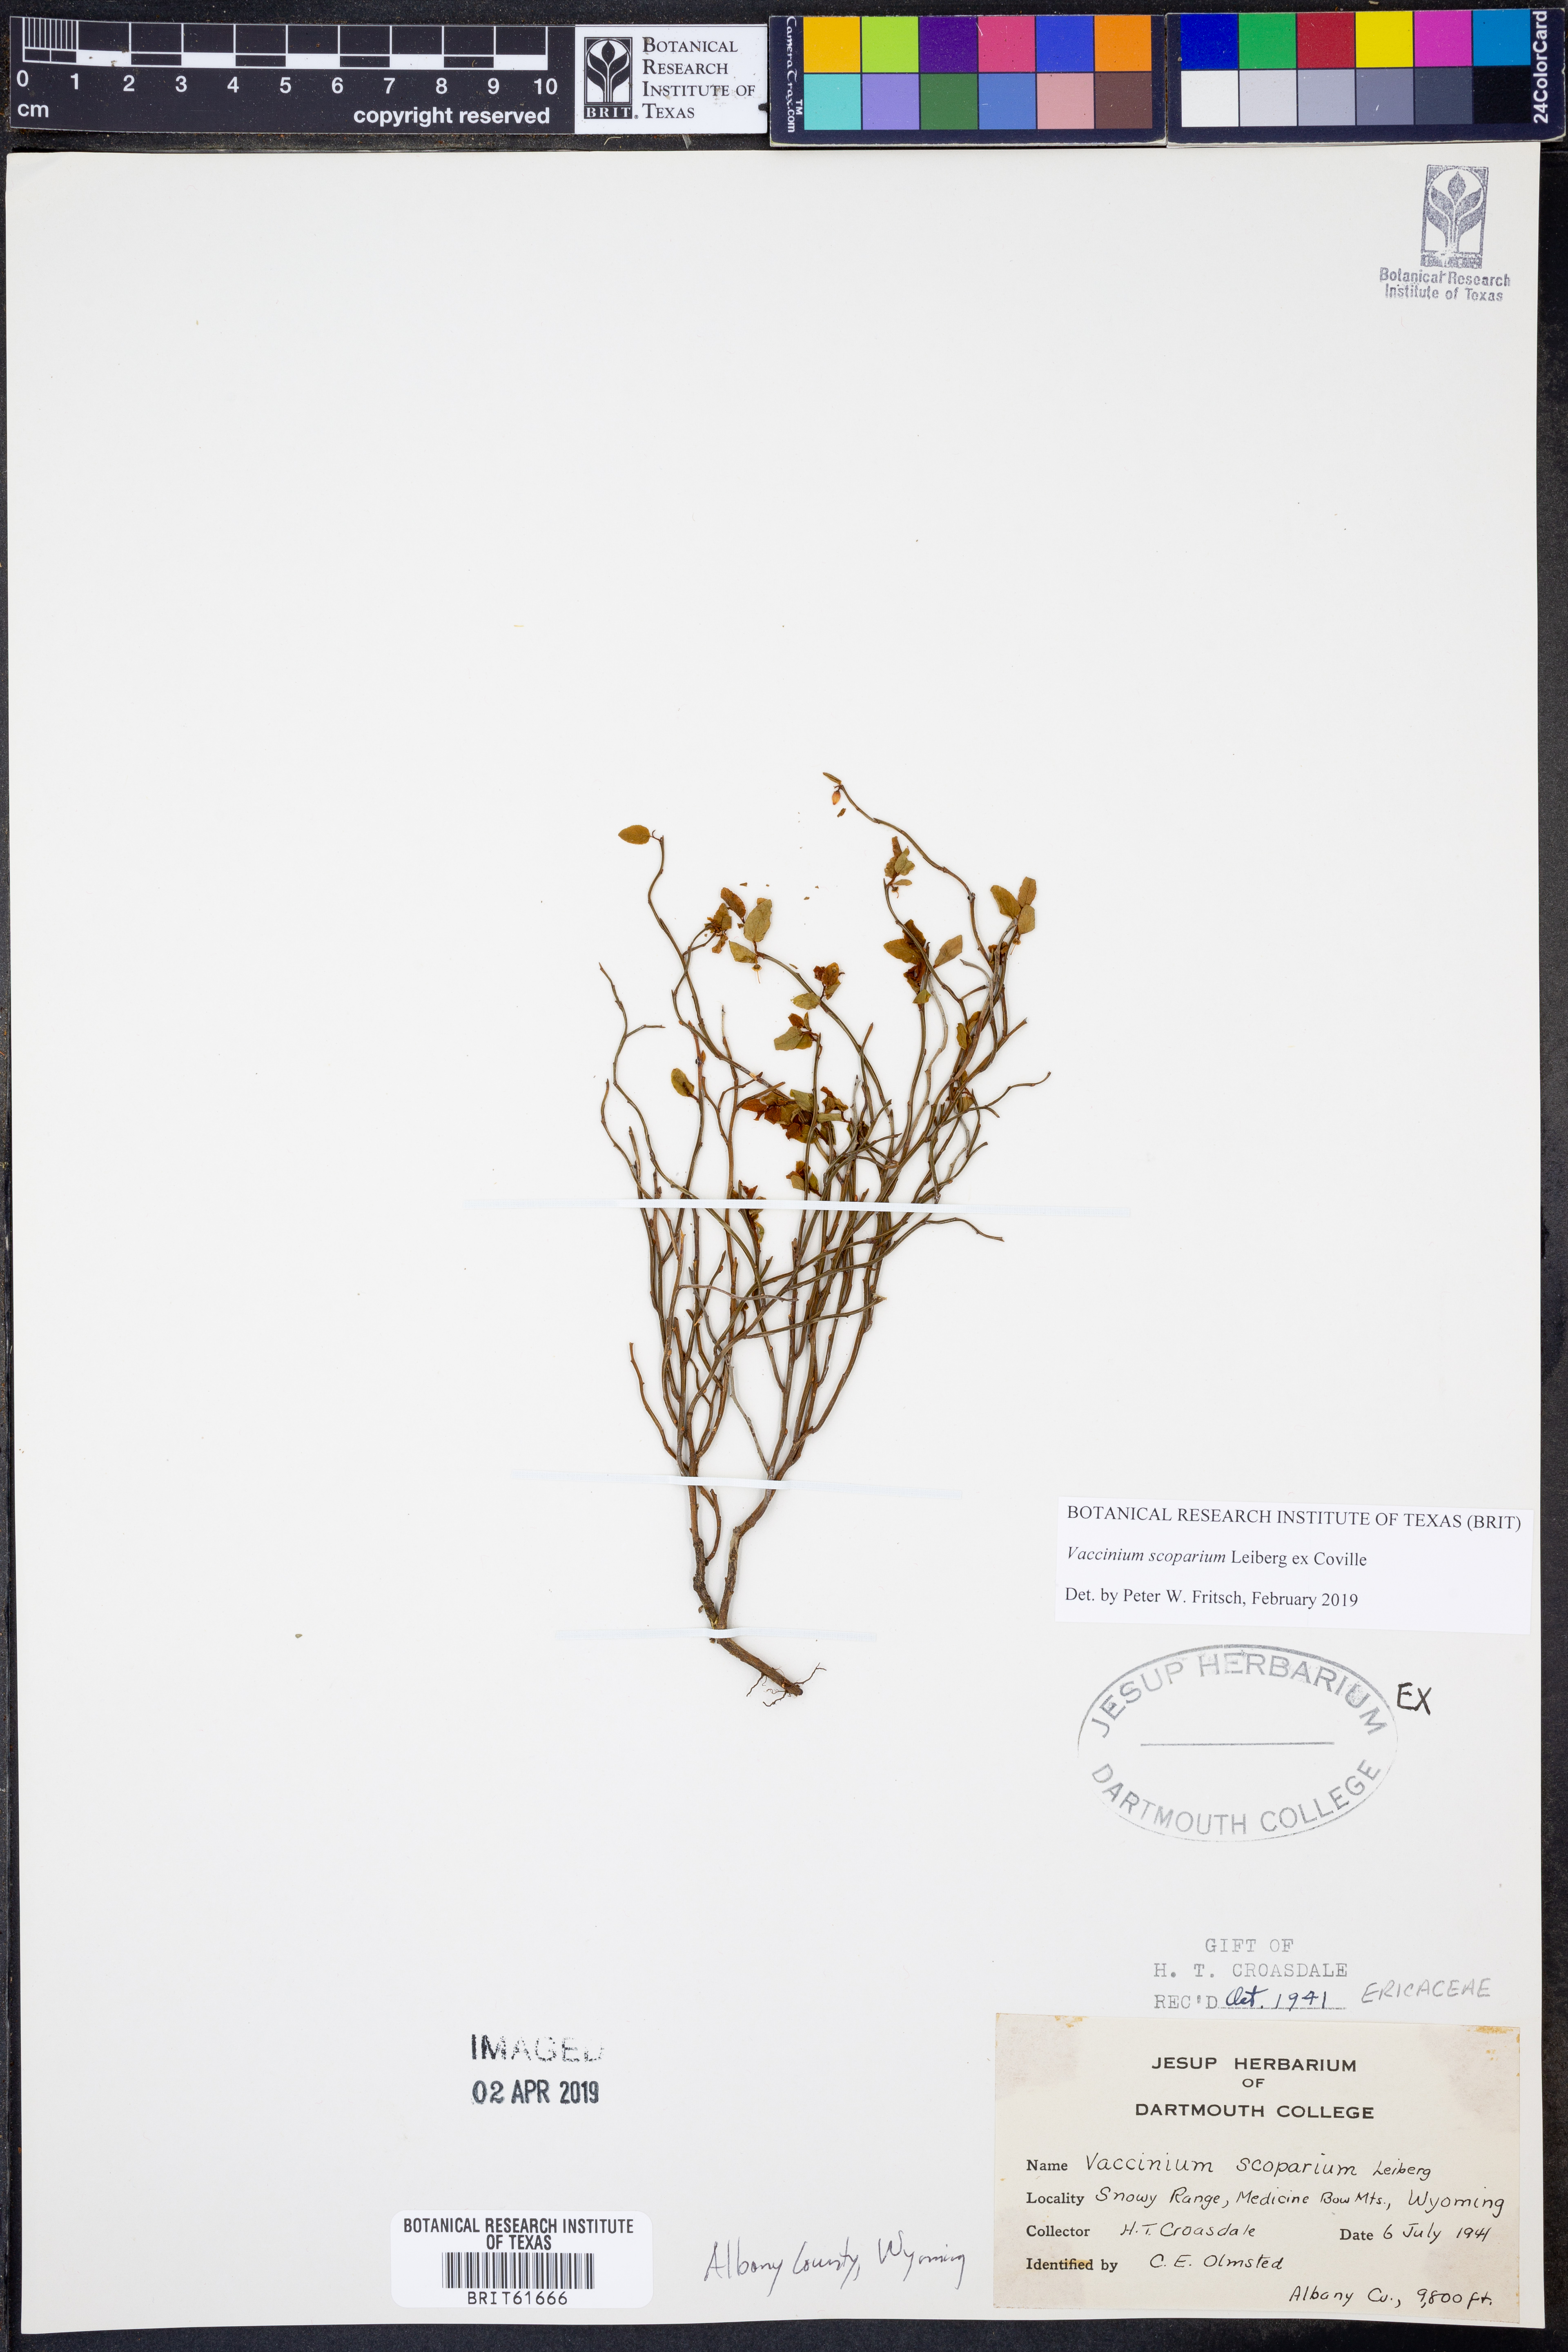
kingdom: Plantae
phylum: Tracheophyta
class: Magnoliopsida
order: Ericales
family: Ericaceae
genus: Vaccinium
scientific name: Vaccinium scoparium
